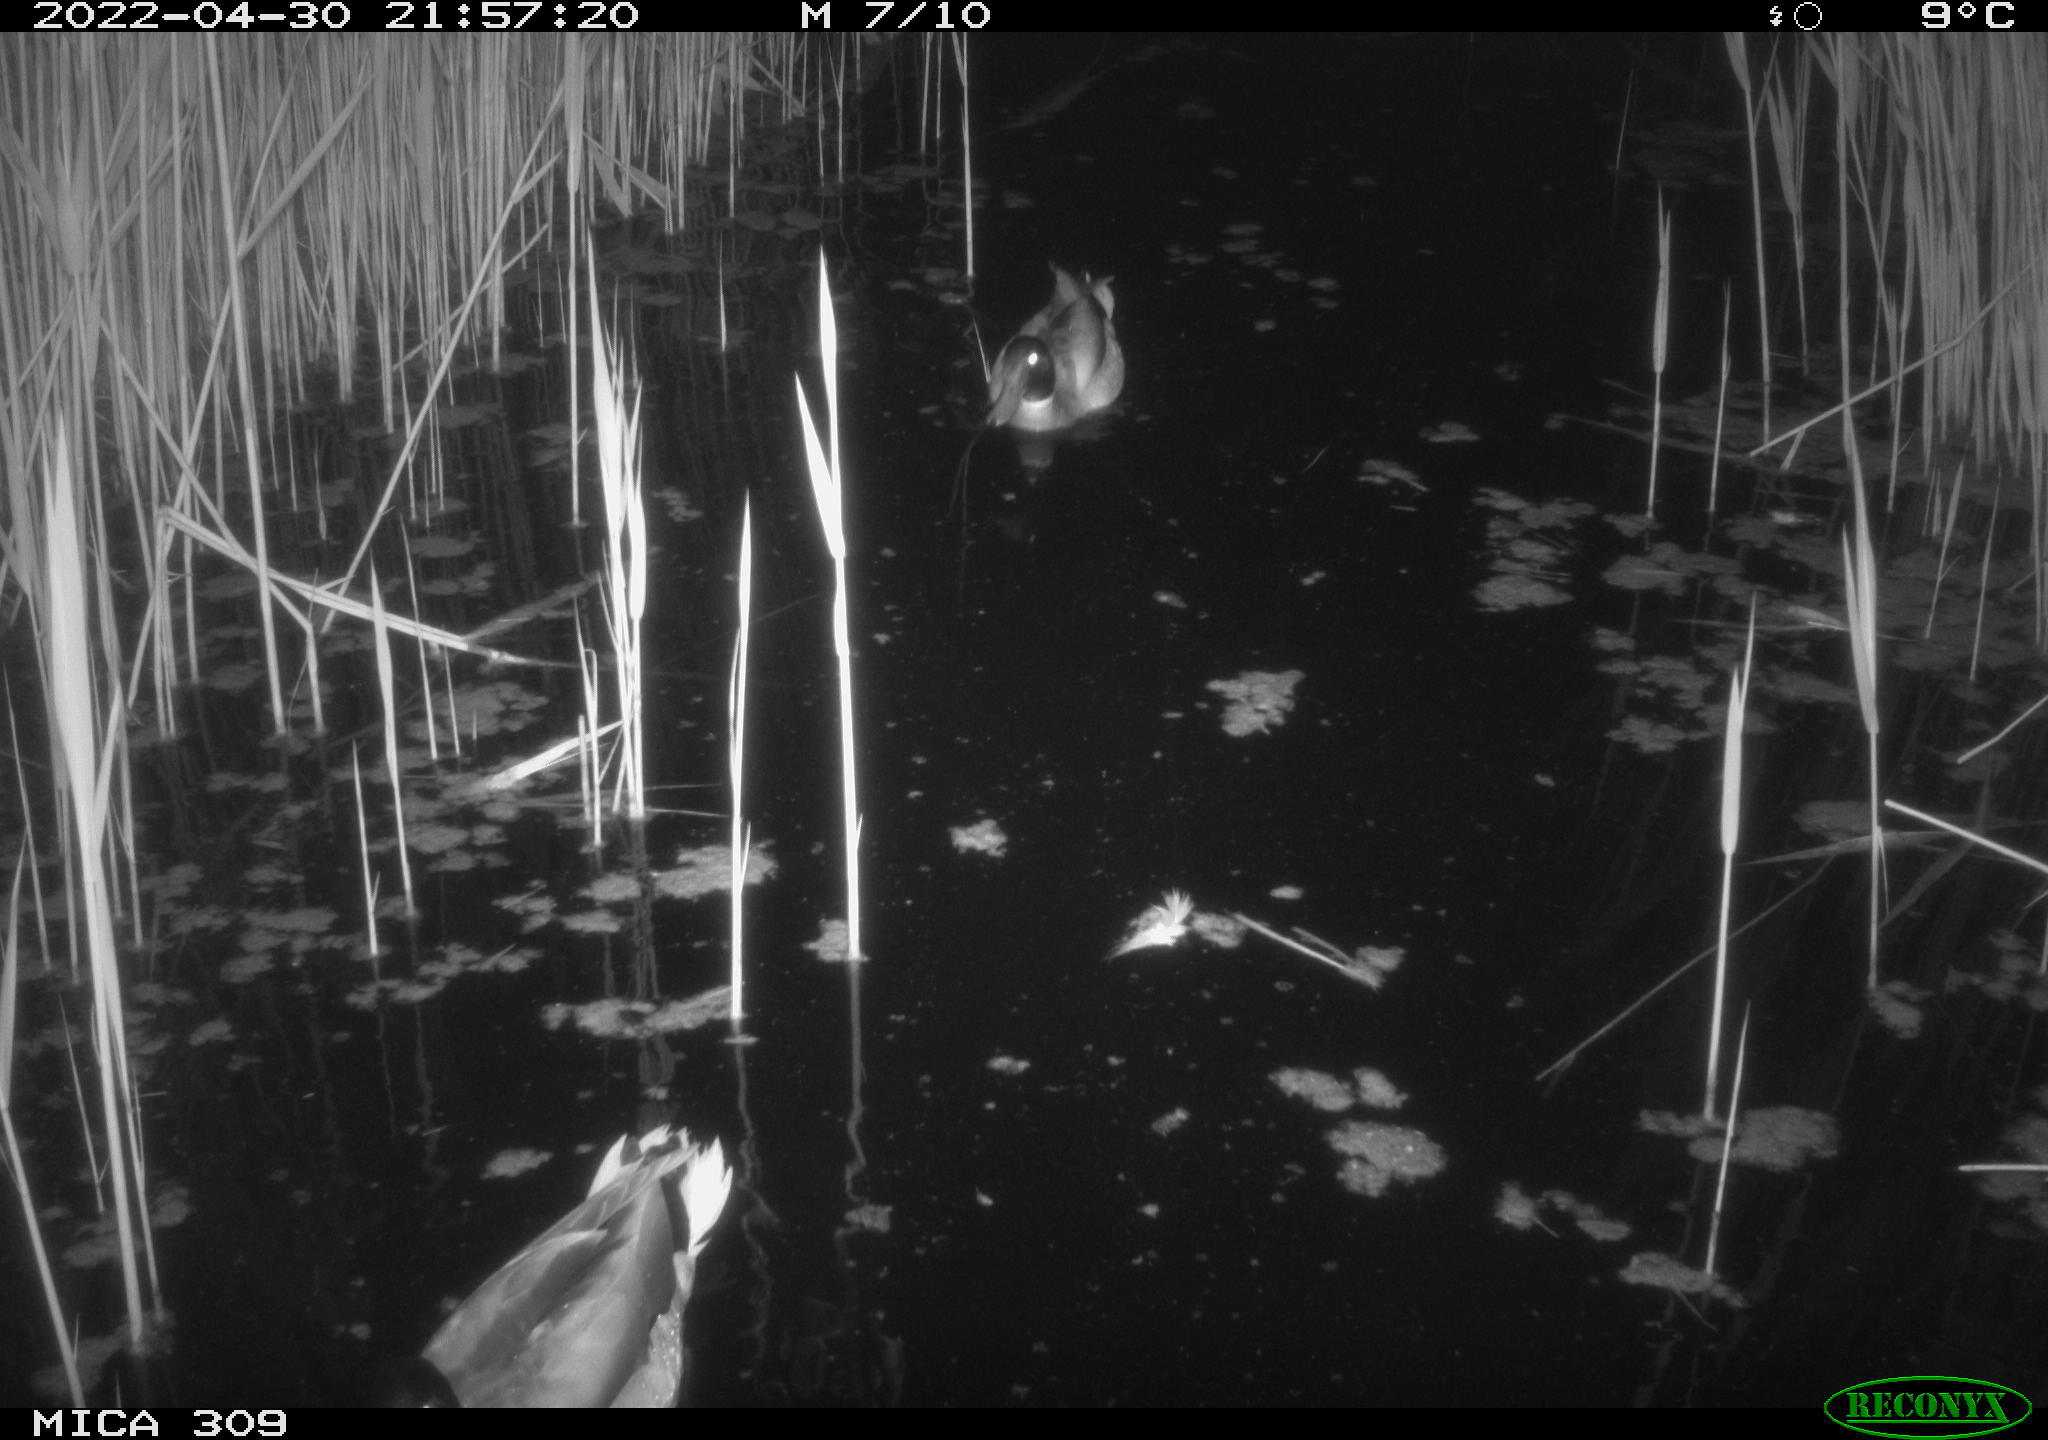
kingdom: Animalia
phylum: Chordata
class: Aves
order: Anseriformes
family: Anatidae
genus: Anas
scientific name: Anas platyrhynchos
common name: Mallard
